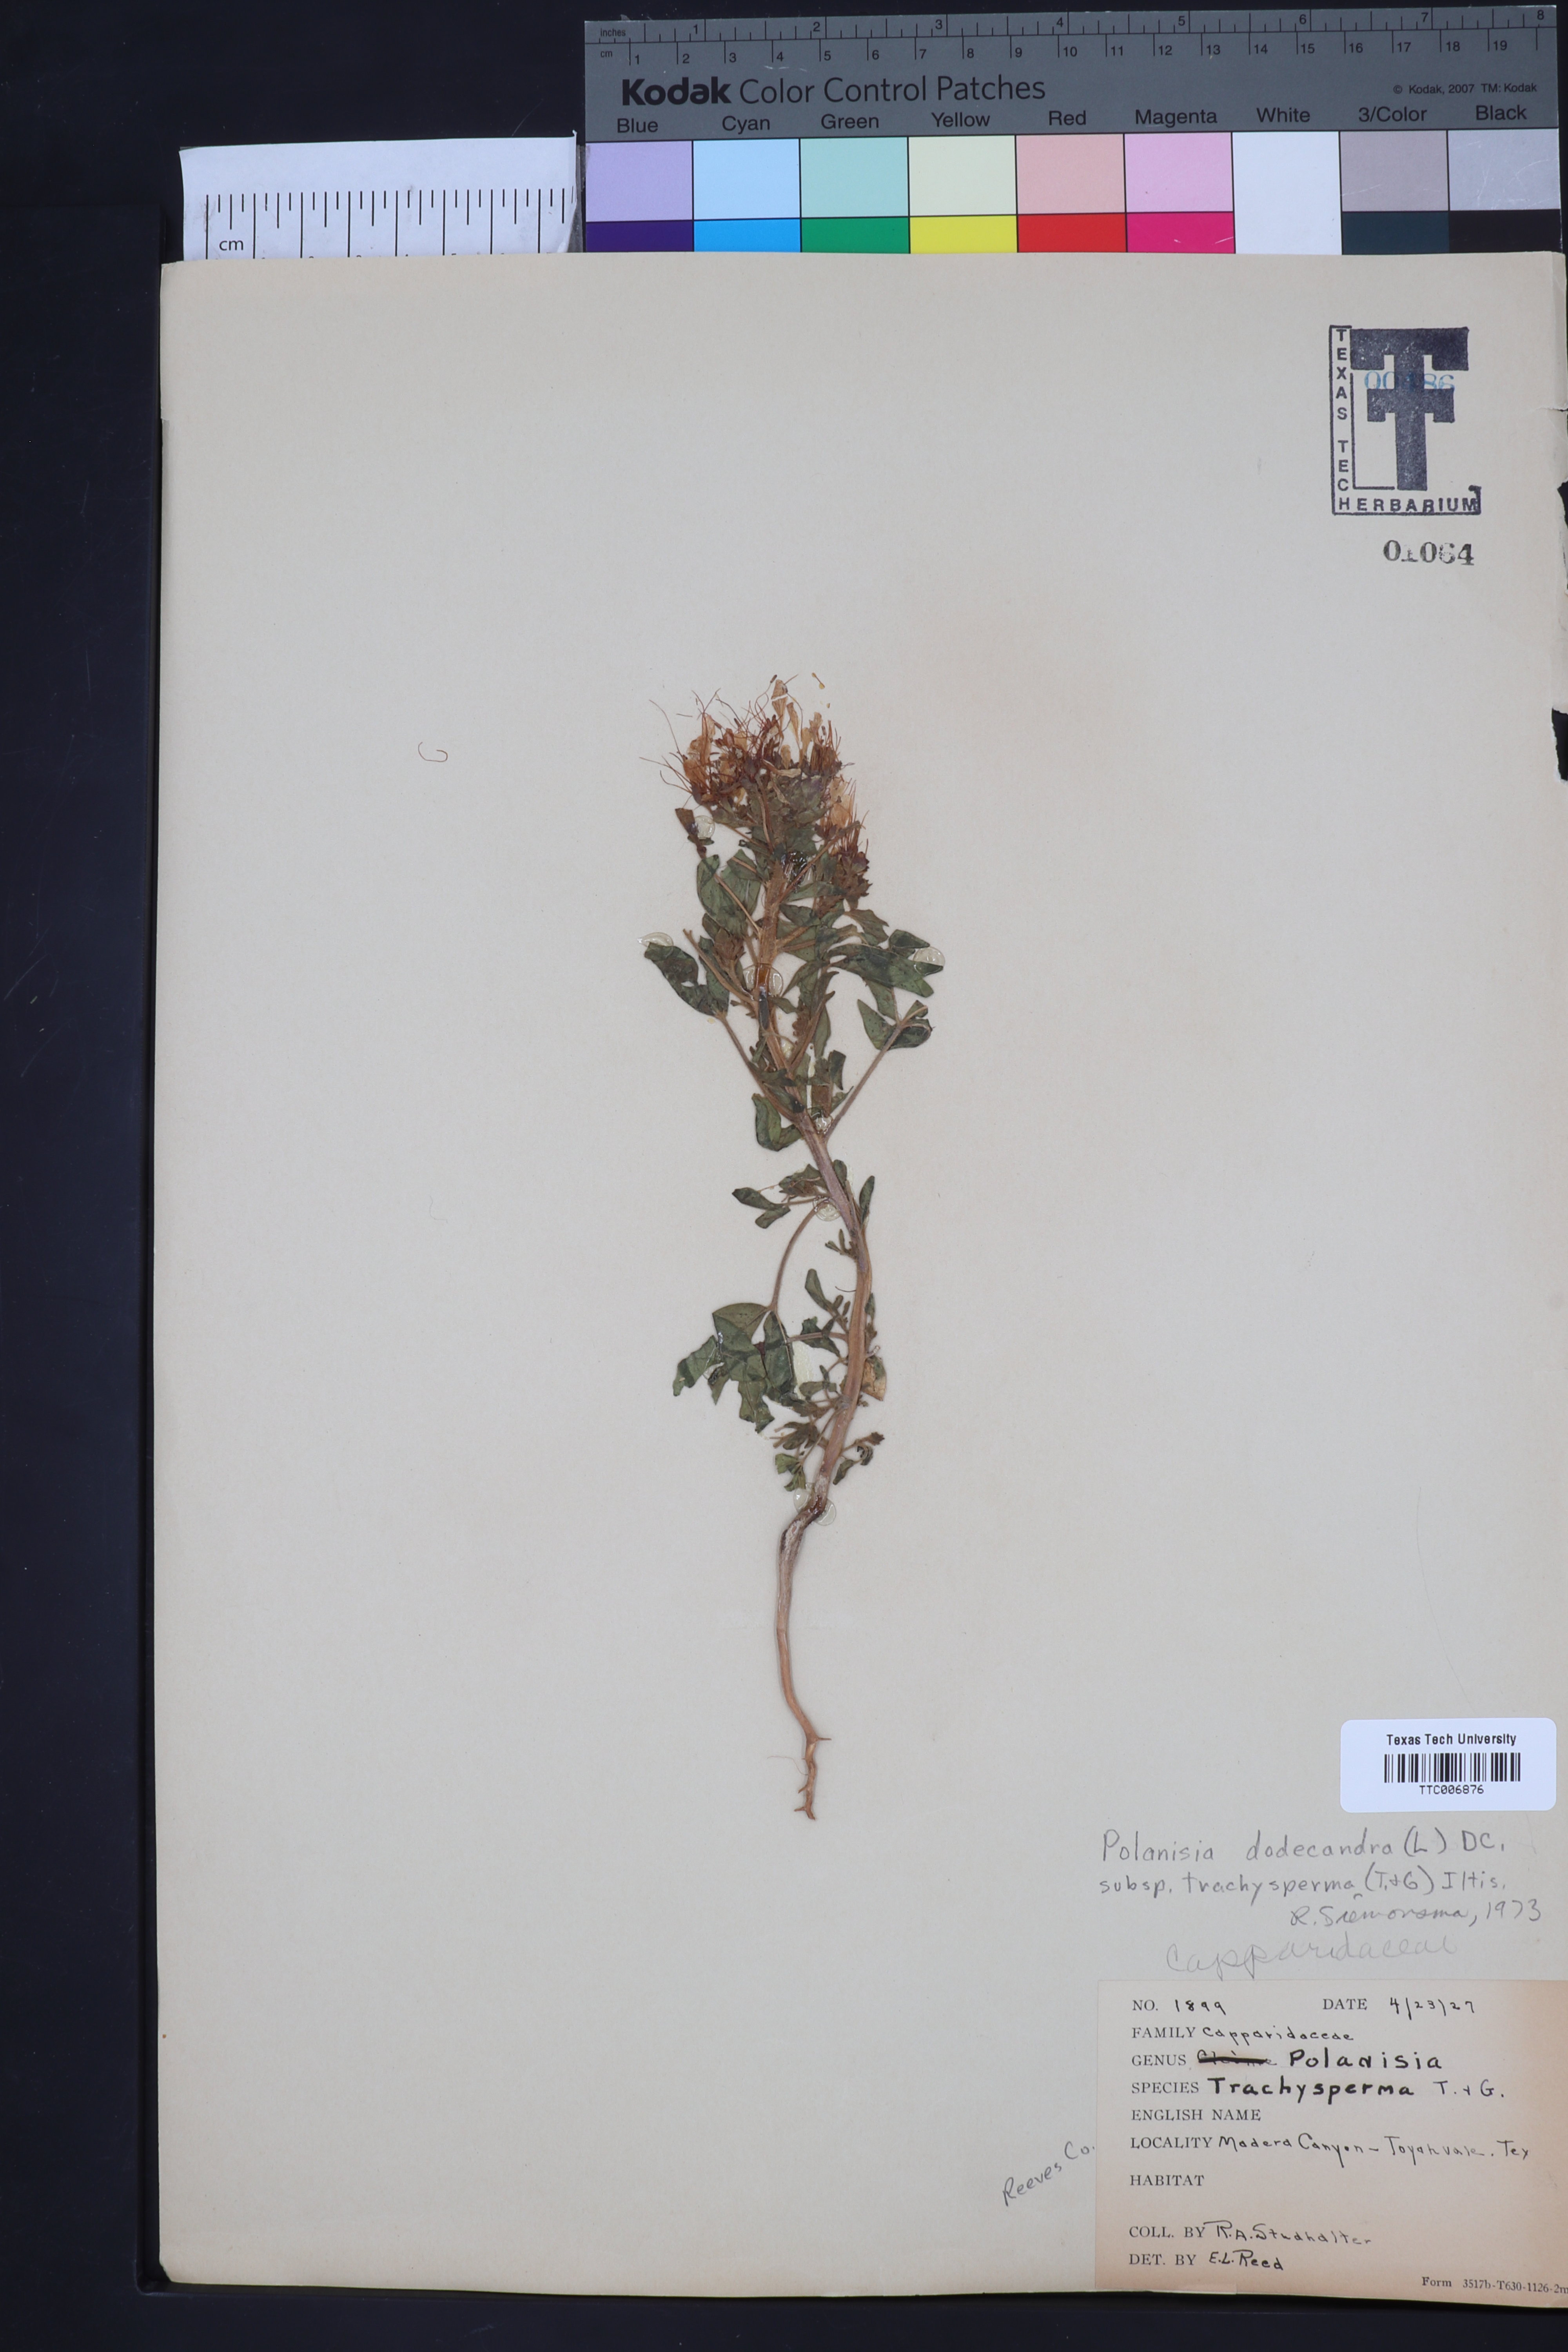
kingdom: Plantae
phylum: Tracheophyta
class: Magnoliopsida
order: Brassicales
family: Cleomaceae
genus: Polanisia
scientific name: Polanisia trachysperma
